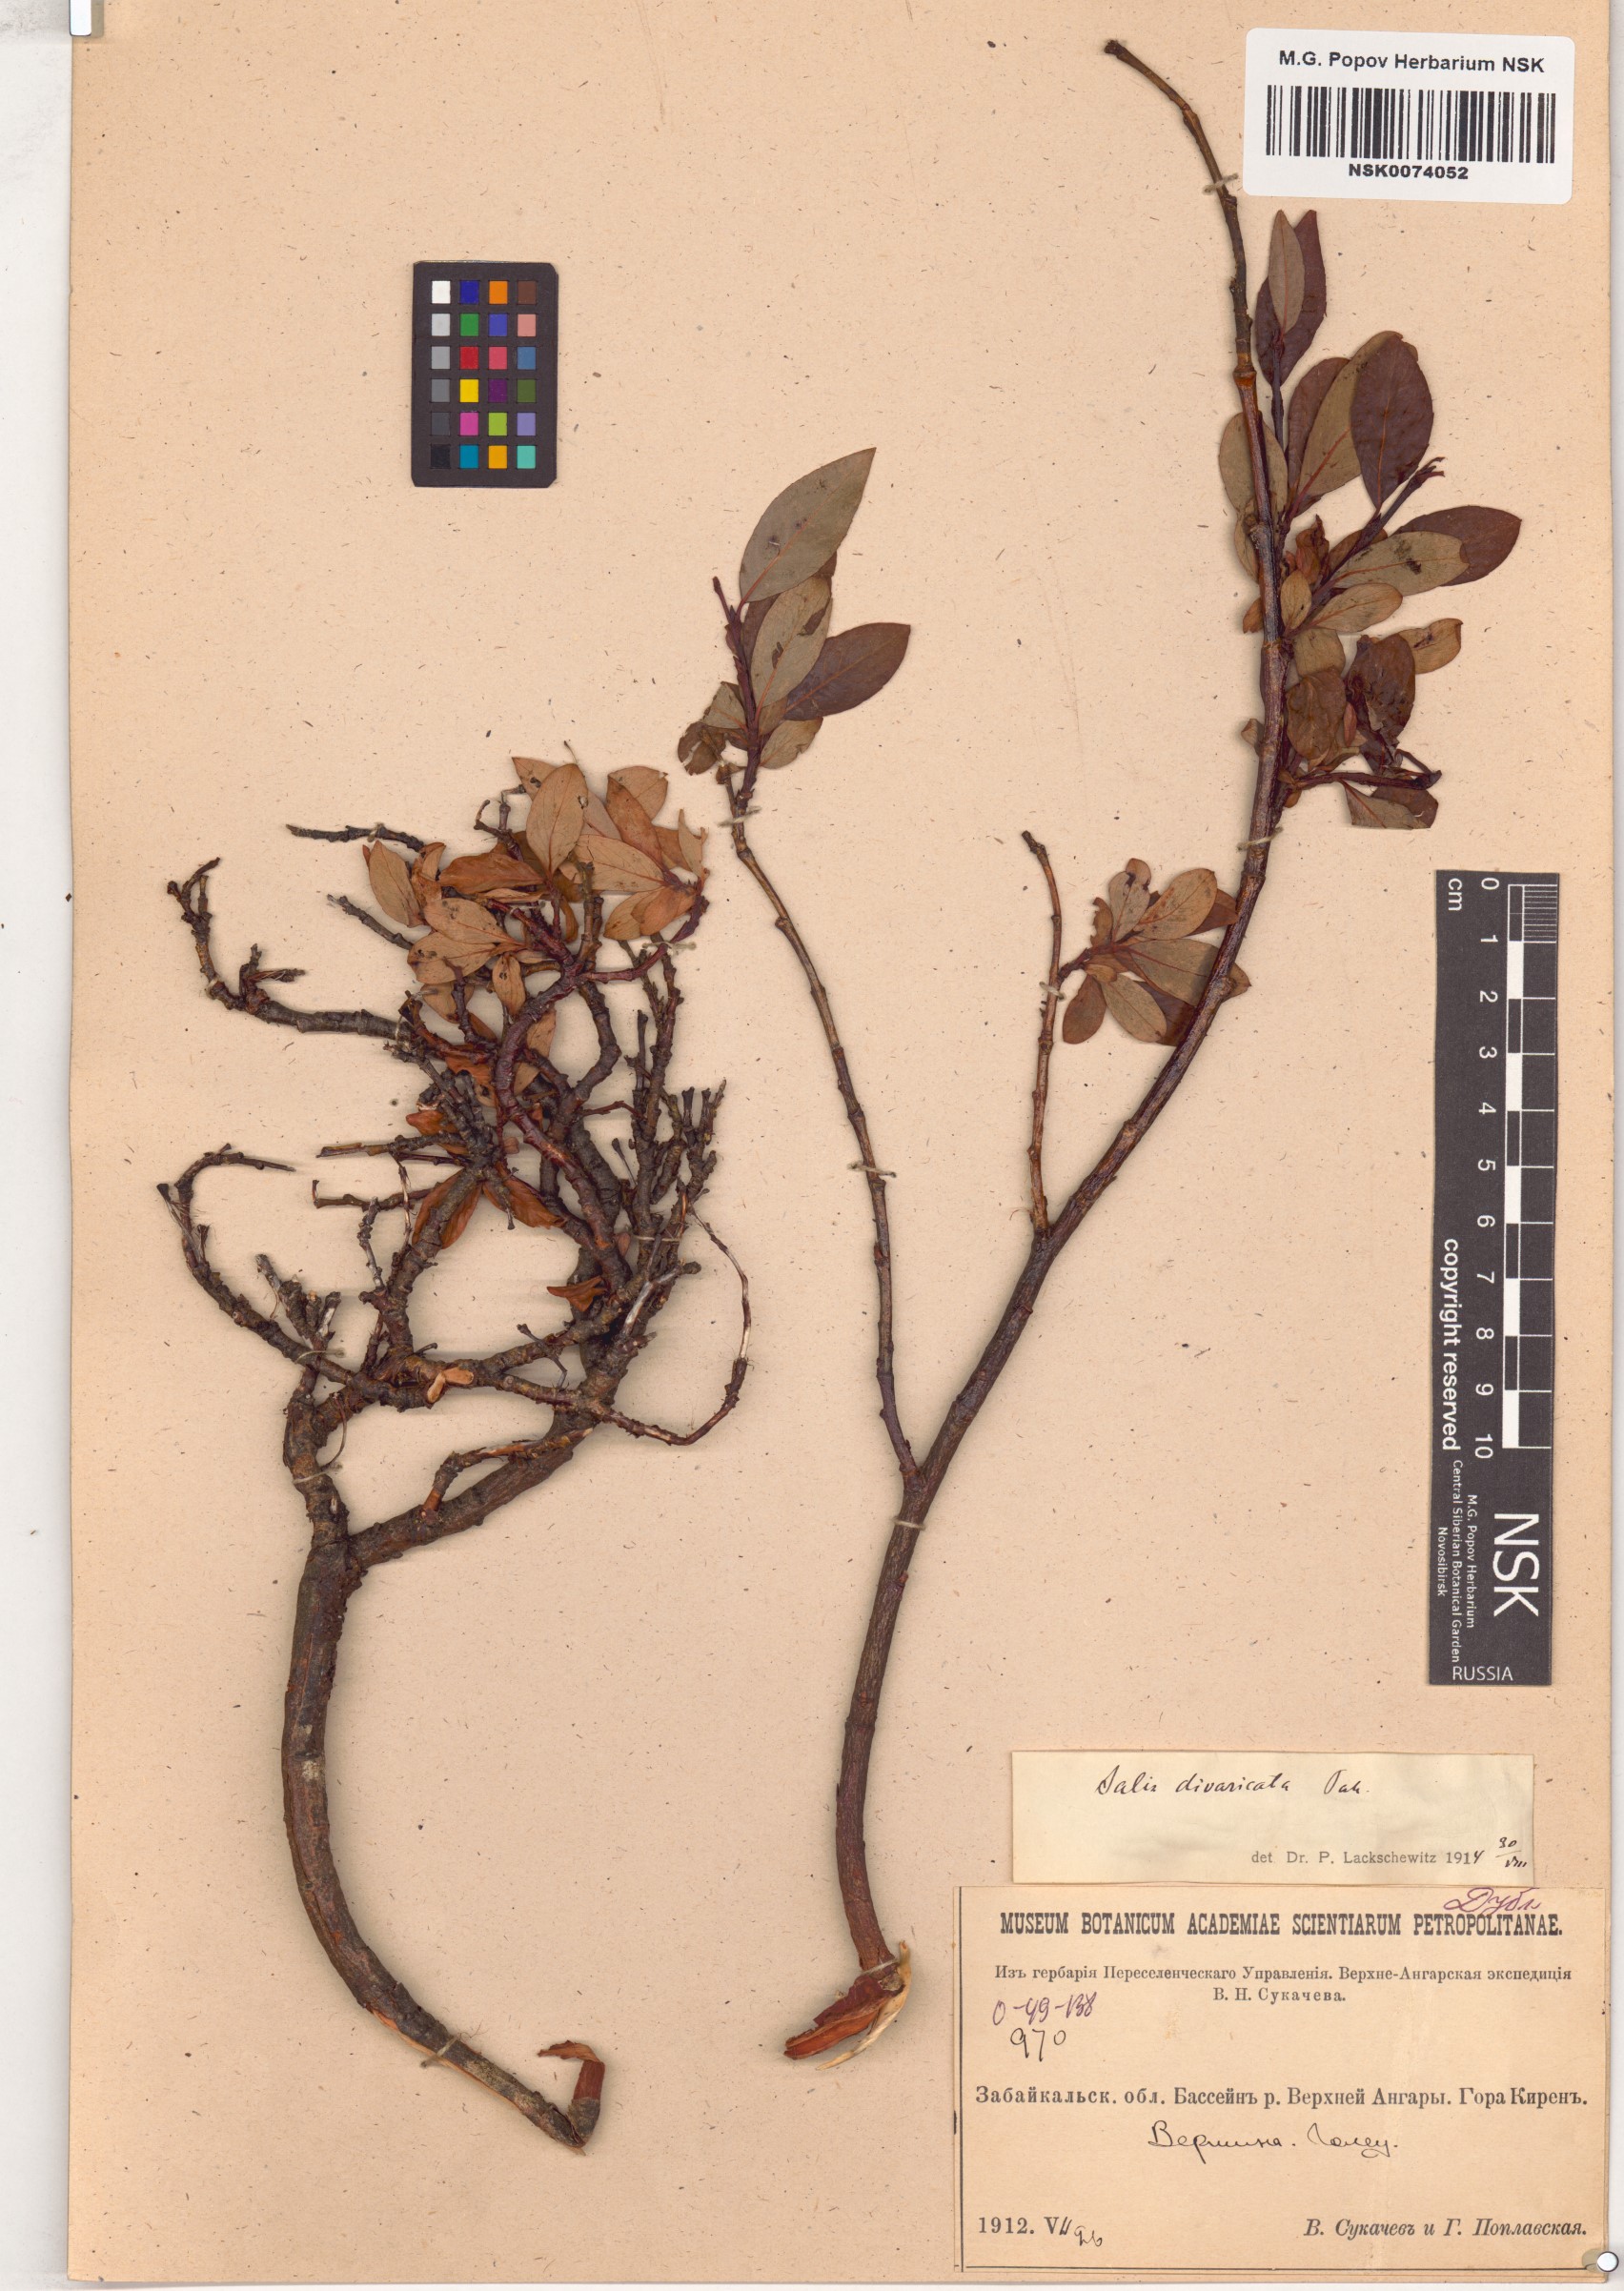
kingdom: Plantae
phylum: Tracheophyta
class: Magnoliopsida
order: Malpighiales
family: Salicaceae
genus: Salix
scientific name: Salix divaricata
